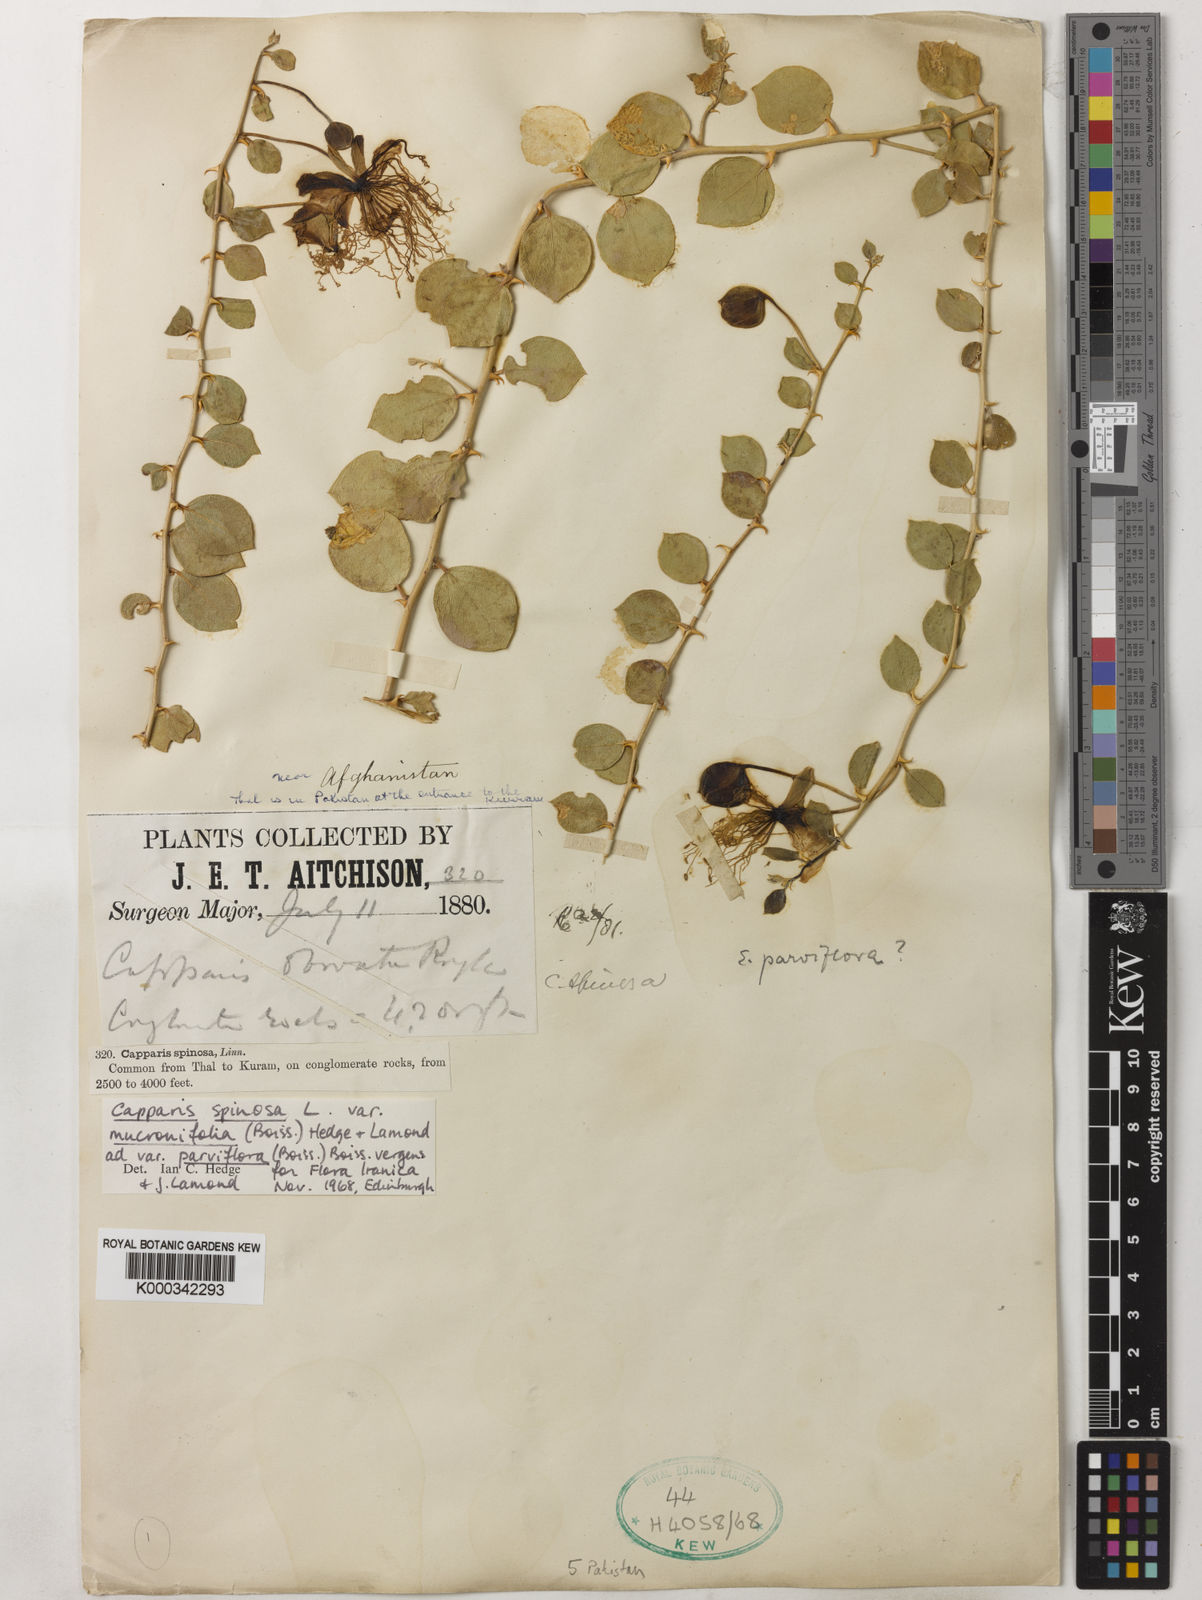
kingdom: Plantae
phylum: Tracheophyta
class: Magnoliopsida
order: Brassicales
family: Capparaceae
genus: Capparis
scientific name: Capparis spinosa
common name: Caper
